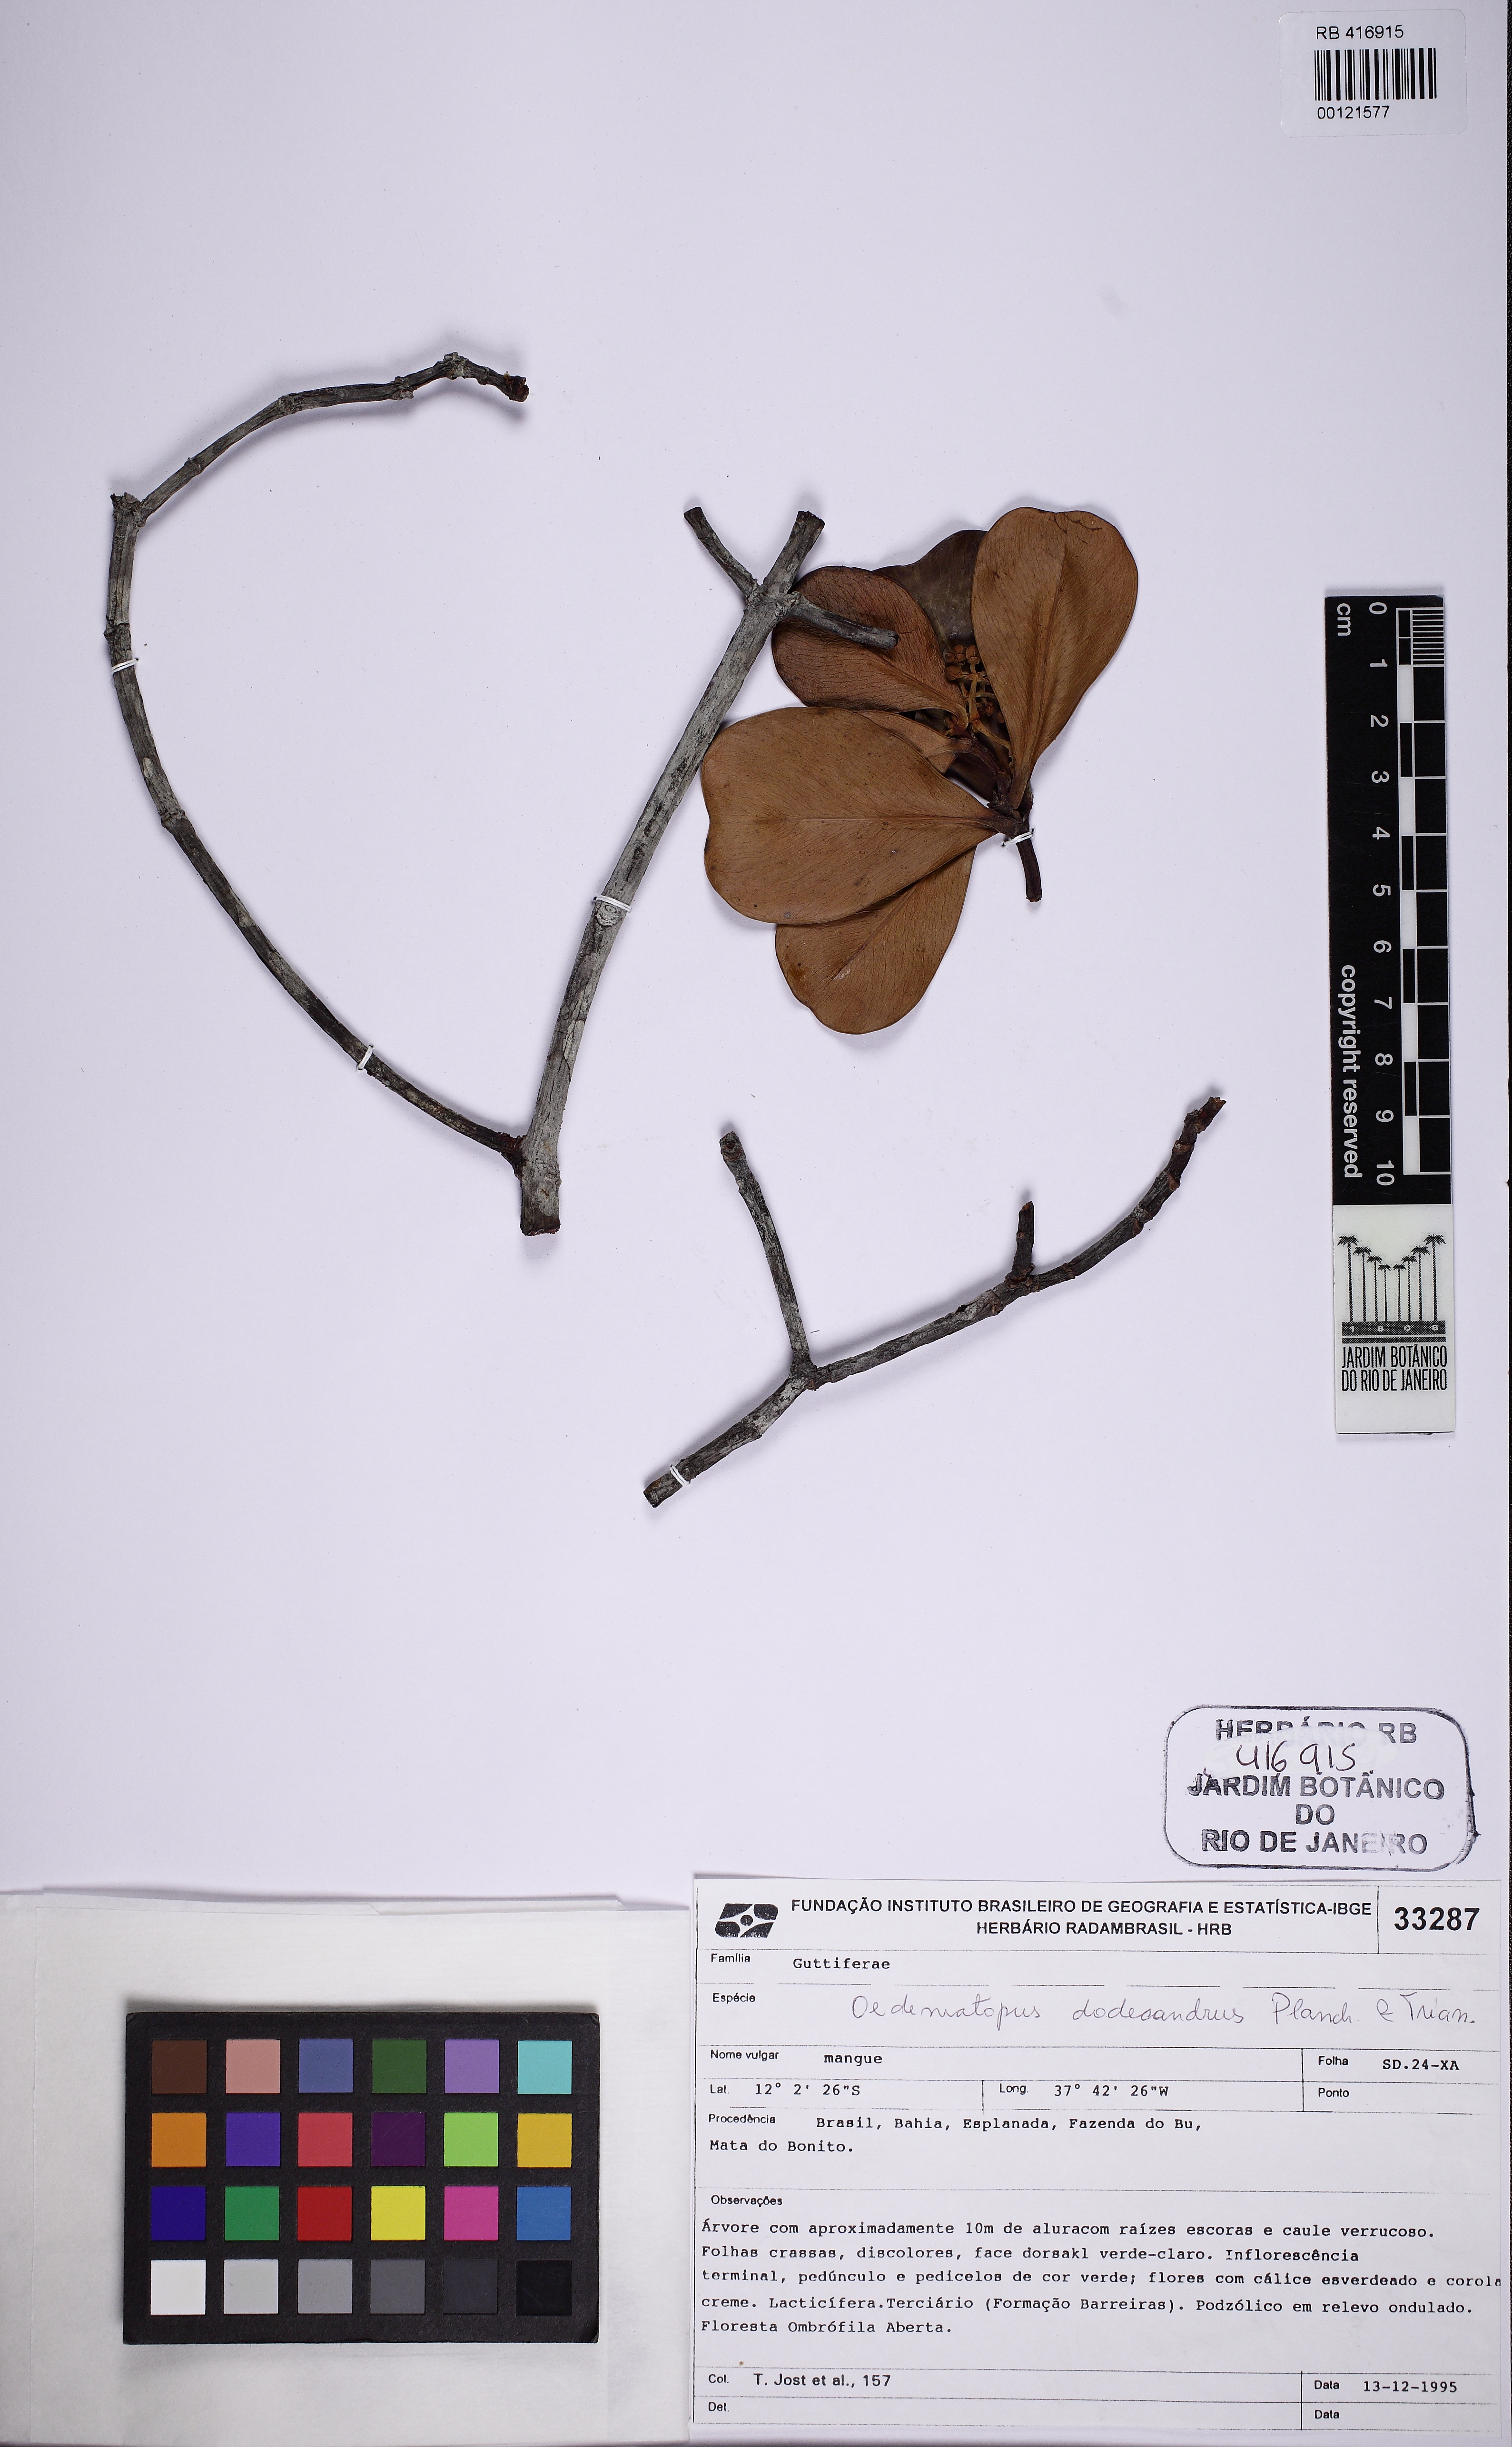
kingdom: Plantae
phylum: Tracheophyta
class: Magnoliopsida
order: Malpighiales
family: Clusiaceae
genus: Clusia
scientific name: Clusia sellowiana
